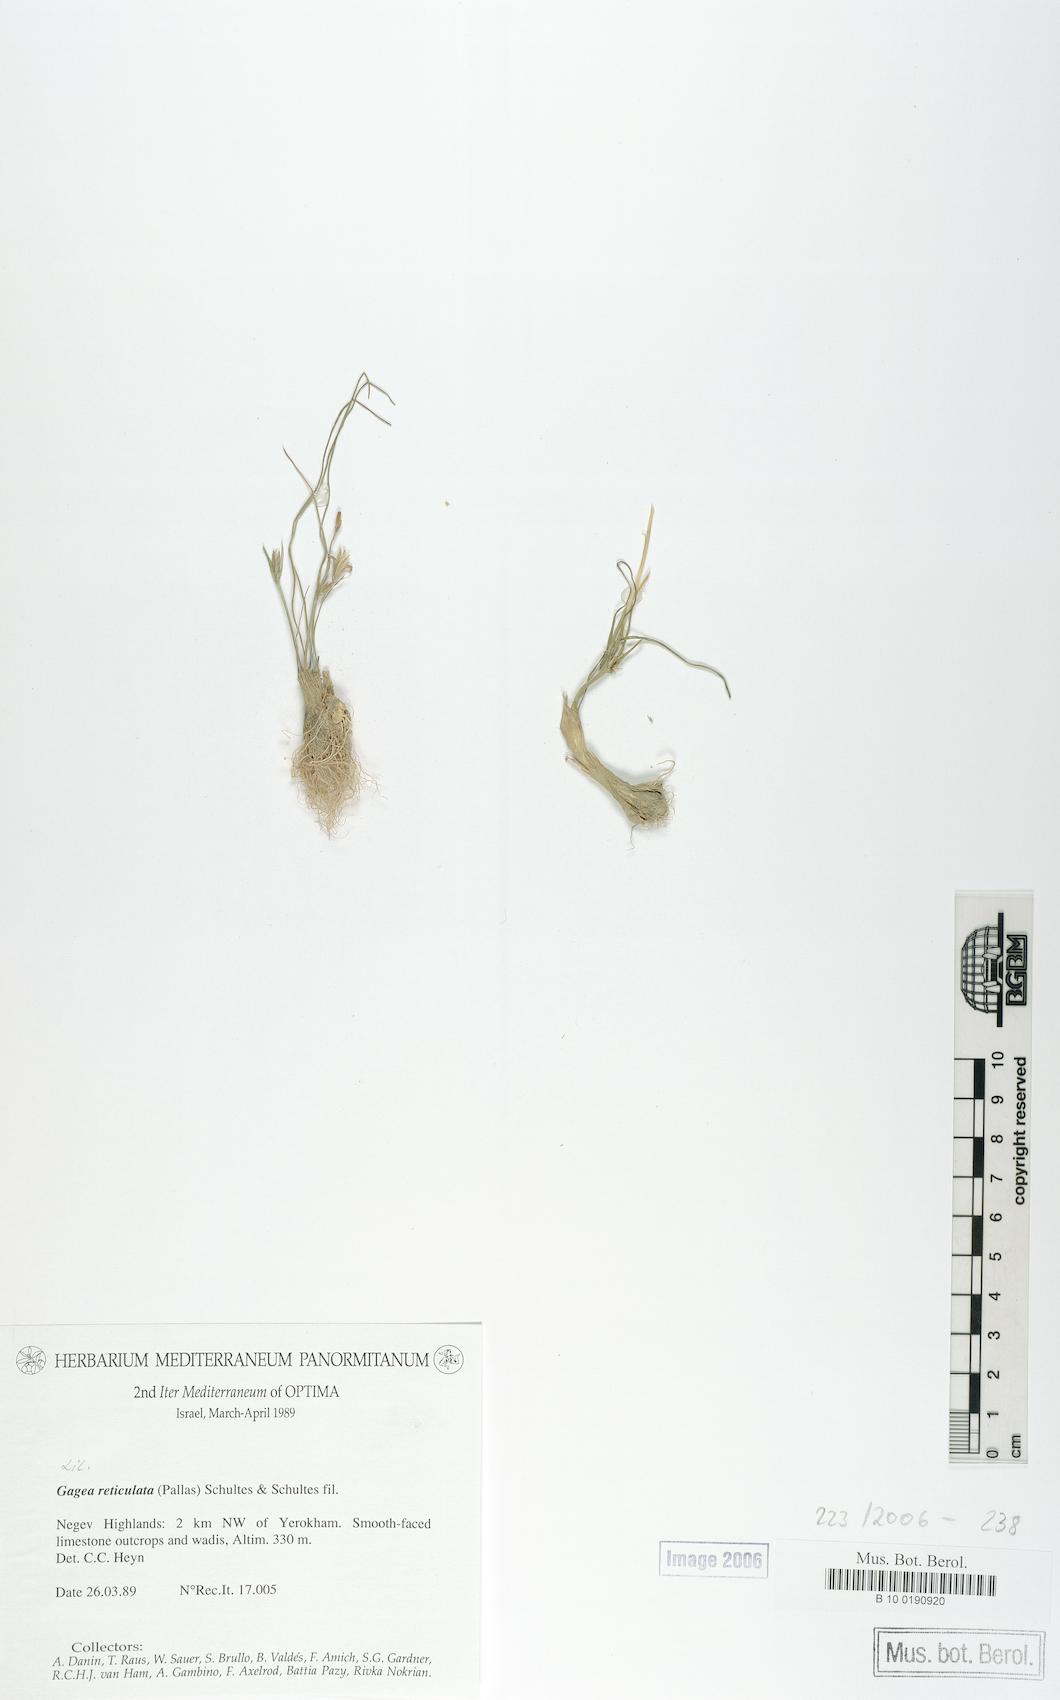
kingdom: Plantae
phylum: Tracheophyta
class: Liliopsida
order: Liliales
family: Liliaceae
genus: Gagea
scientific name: Gagea reticulata
